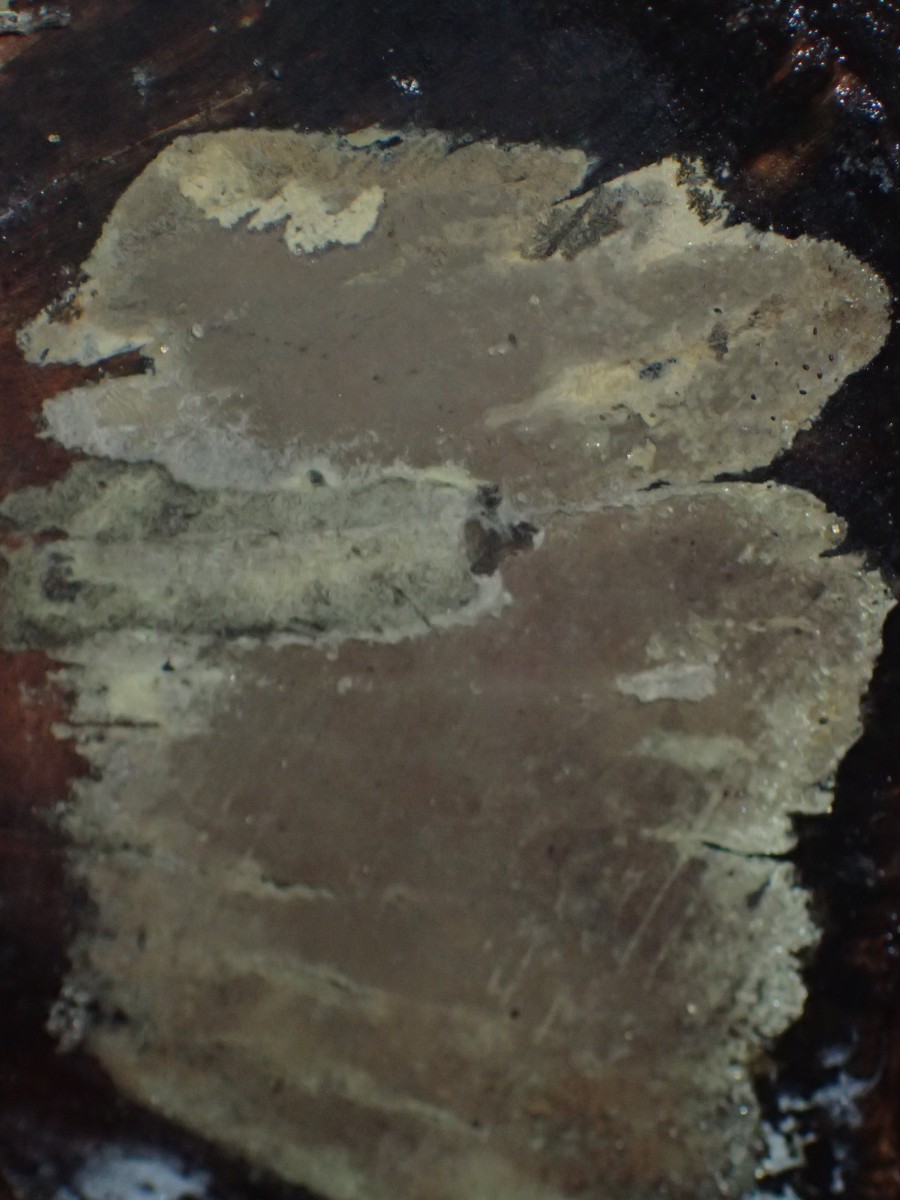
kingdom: Fungi
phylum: Ascomycota
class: Sordariomycetes
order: Xylariales
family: Hypoxylaceae
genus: Nodulisporium
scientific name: Nodulisporium
